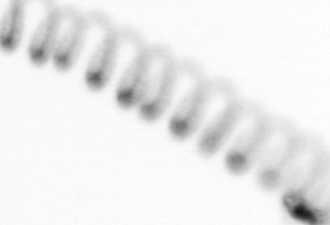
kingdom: Chromista
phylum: Ochrophyta
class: Bacillariophyceae
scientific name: Bacillariophyceae
